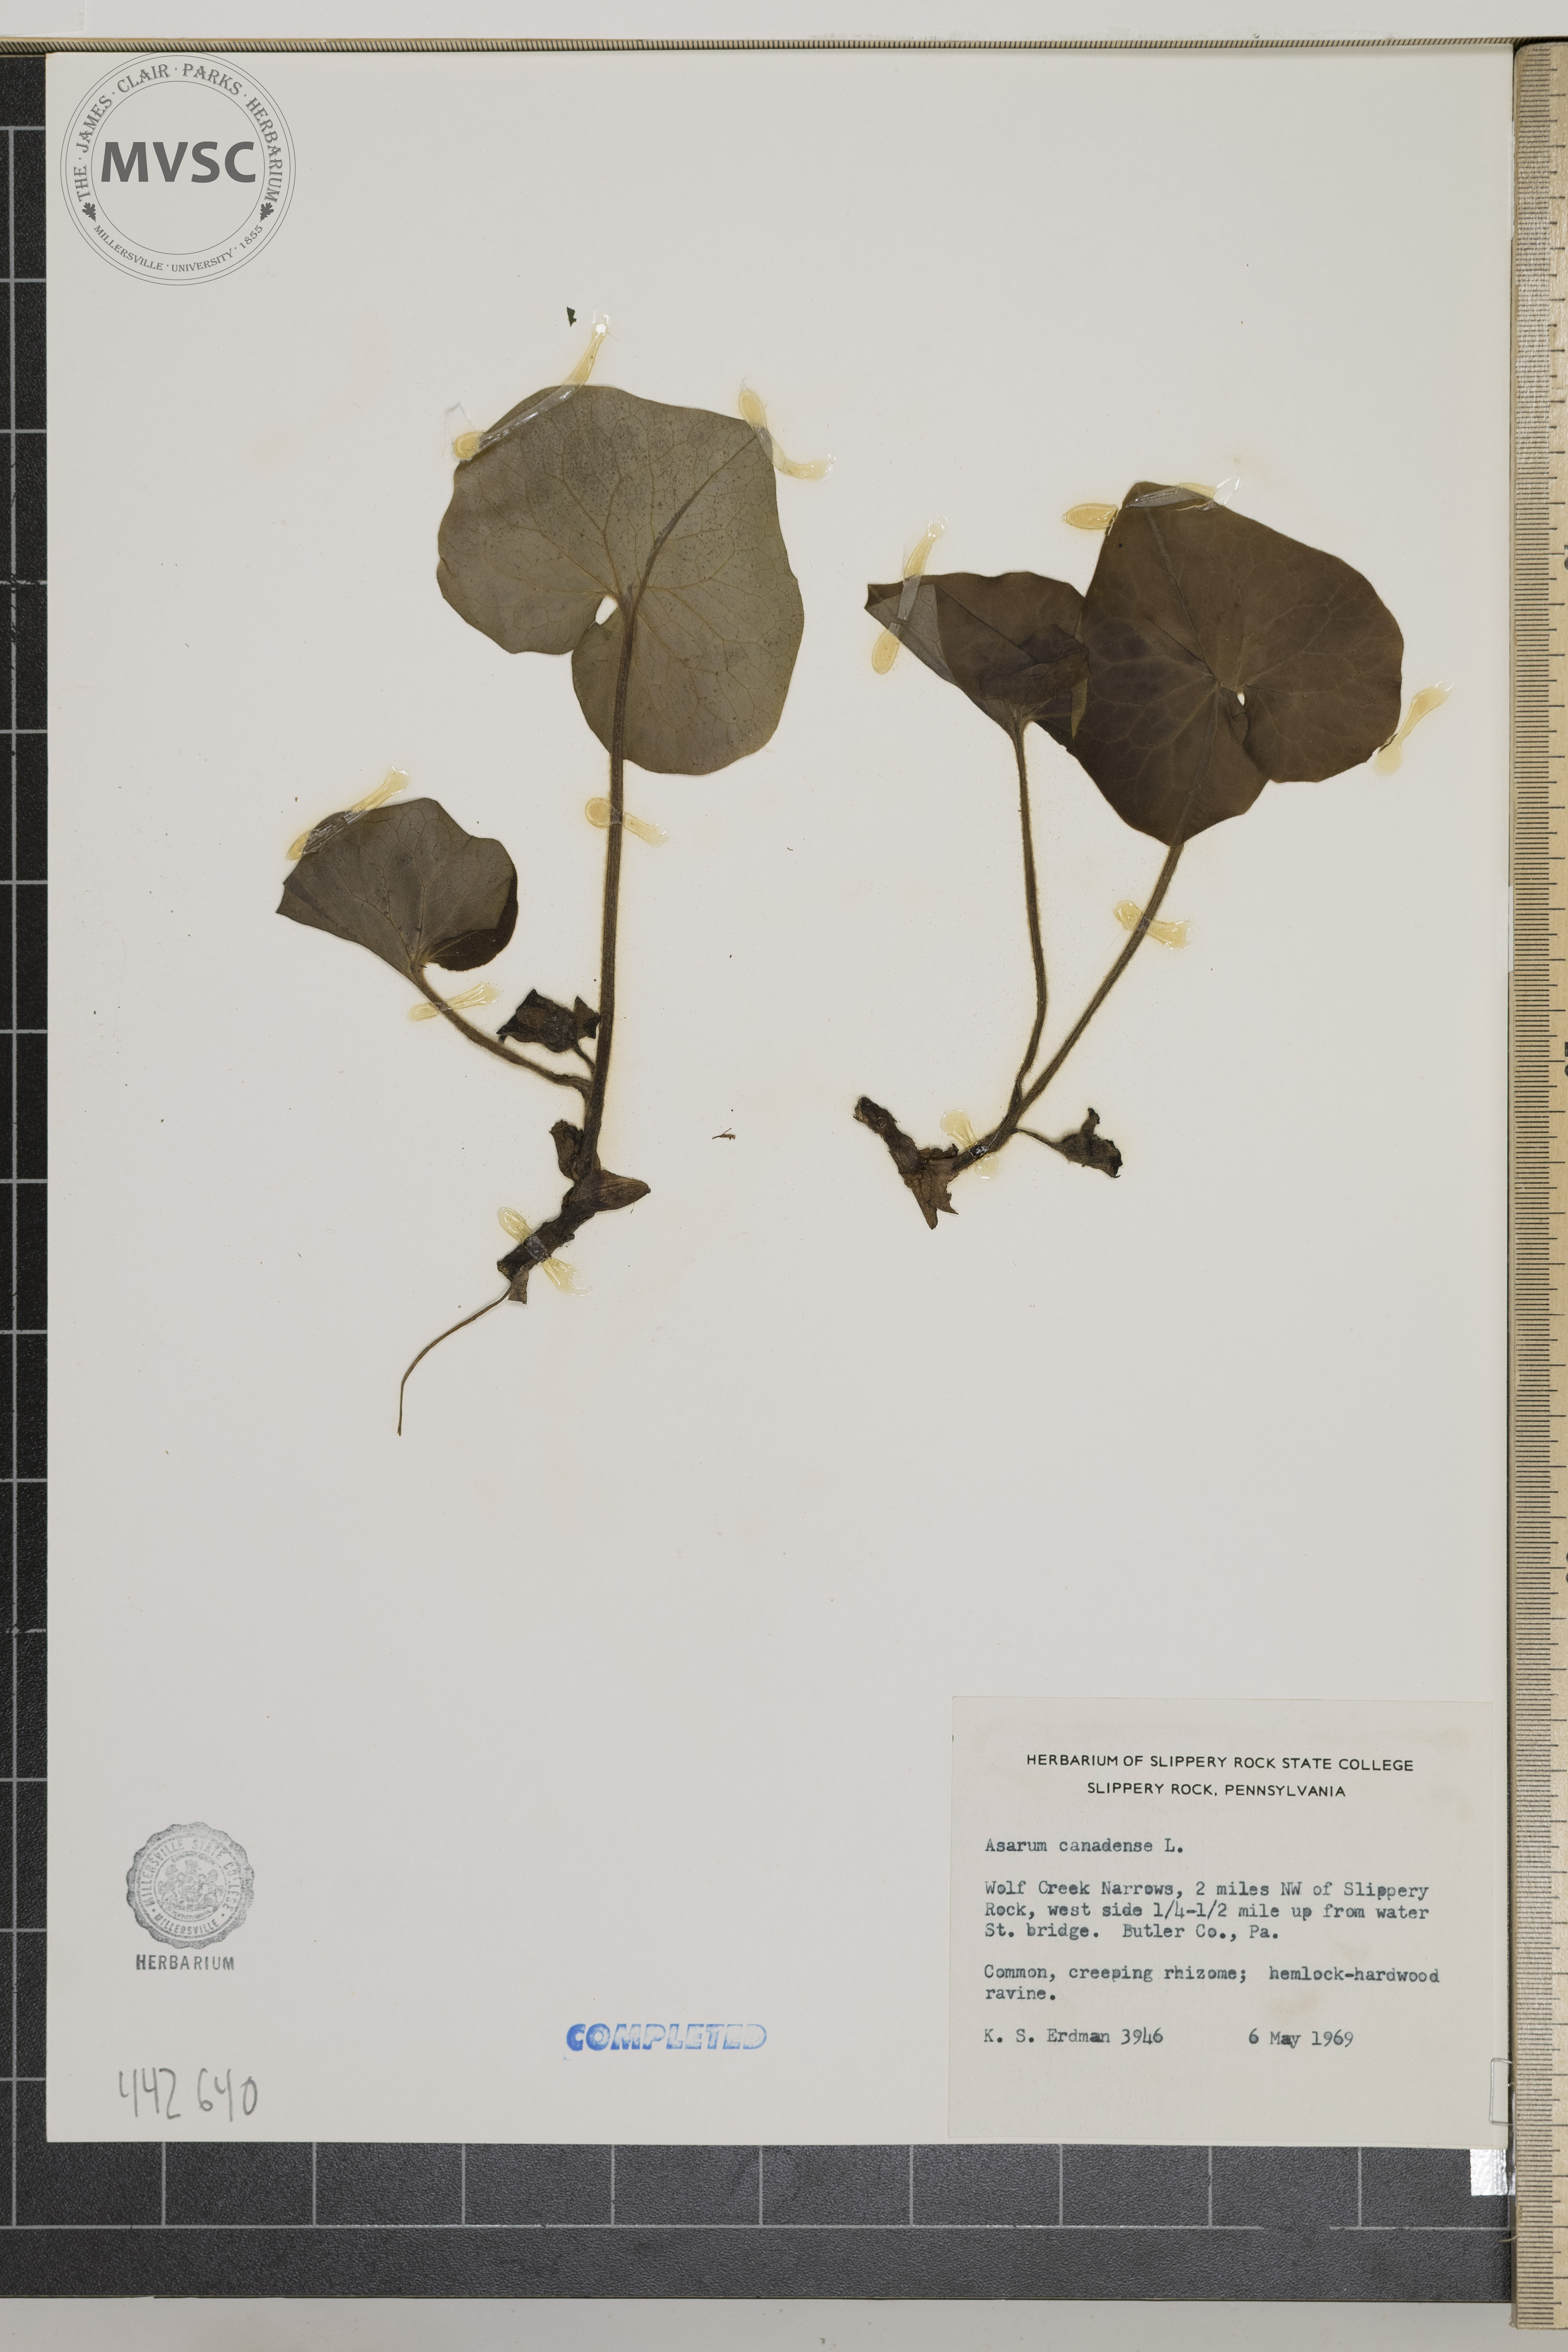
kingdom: Plantae
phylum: Tracheophyta
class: Magnoliopsida
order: Piperales
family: Aristolochiaceae
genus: Asarum
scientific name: Asarum canadense
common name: Wild ginger
